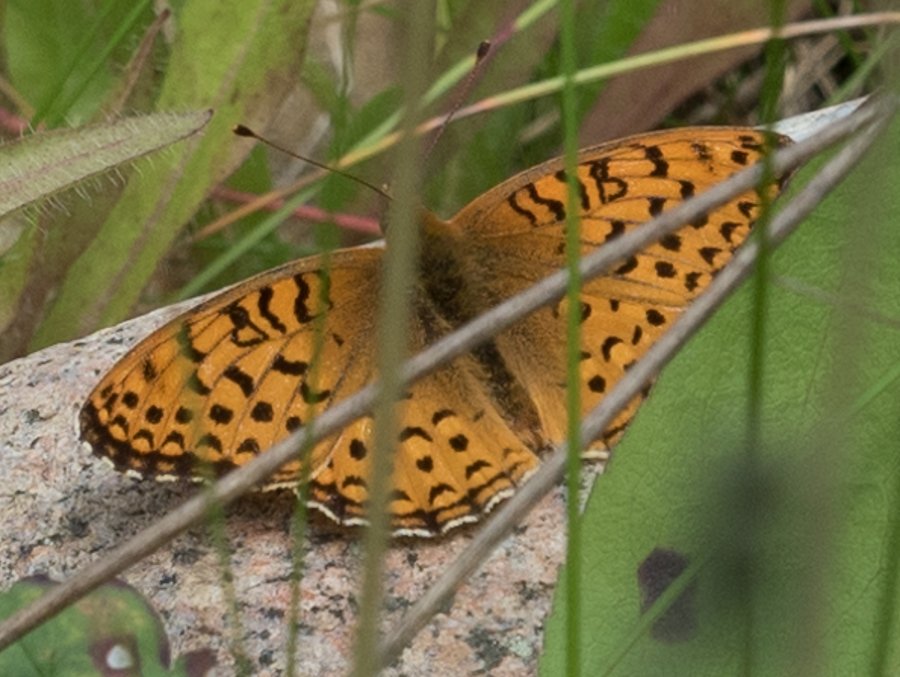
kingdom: Animalia
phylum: Arthropoda
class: Insecta
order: Lepidoptera
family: Nymphalidae
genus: Speyeria
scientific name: Speyeria atlantis
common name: Northwestern Fritillary
